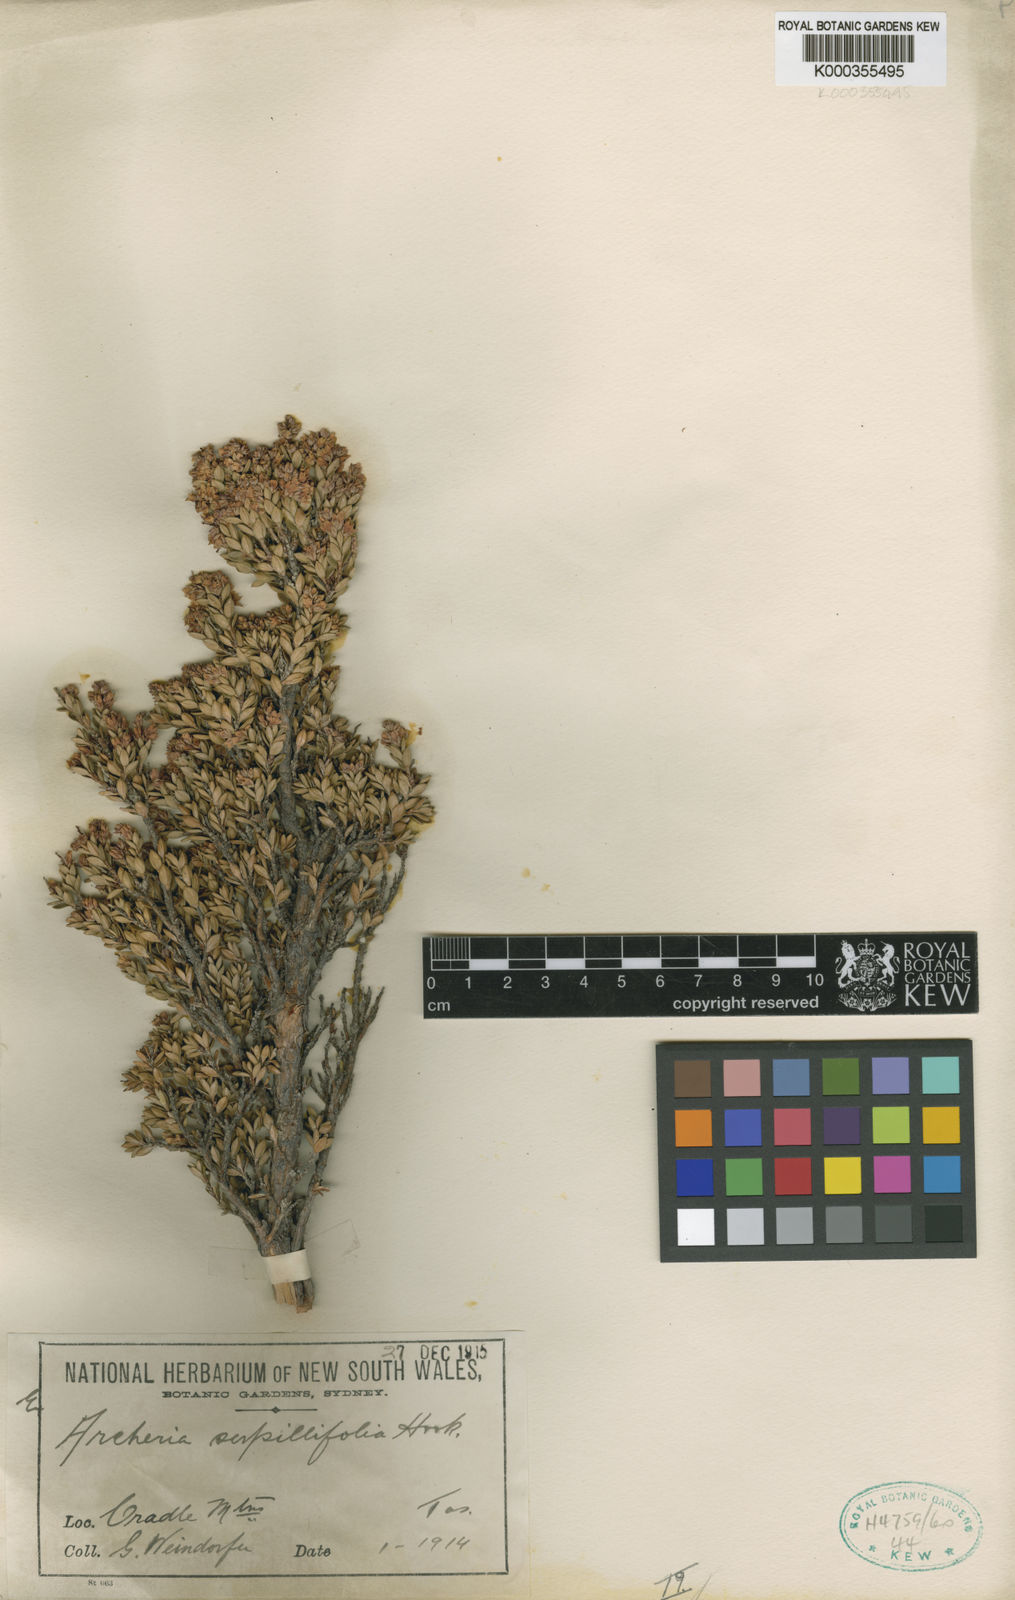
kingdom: Plantae
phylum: Tracheophyta
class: Magnoliopsida
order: Ericales
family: Ericaceae
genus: Archeria
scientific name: Archeria serpyllifolia
